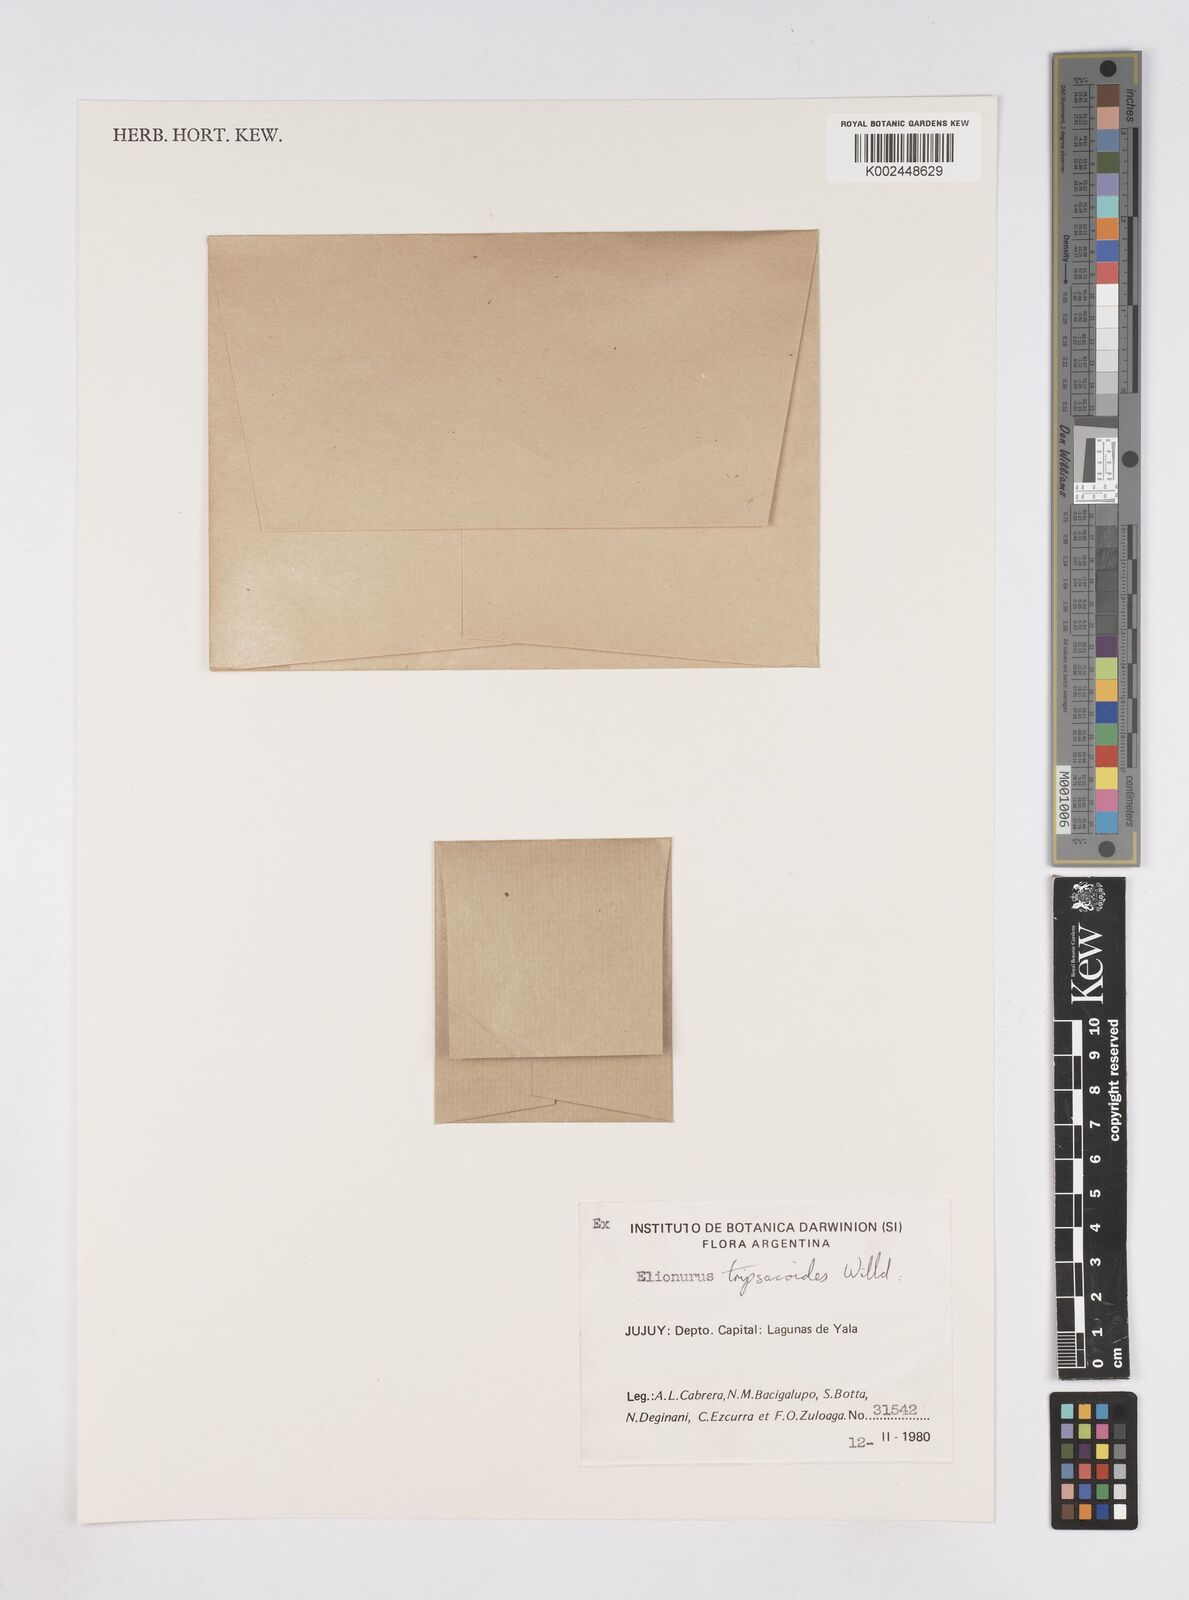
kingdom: Plantae
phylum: Tracheophyta
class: Liliopsida
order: Poales
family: Poaceae
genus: Elionurus
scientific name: Elionurus
